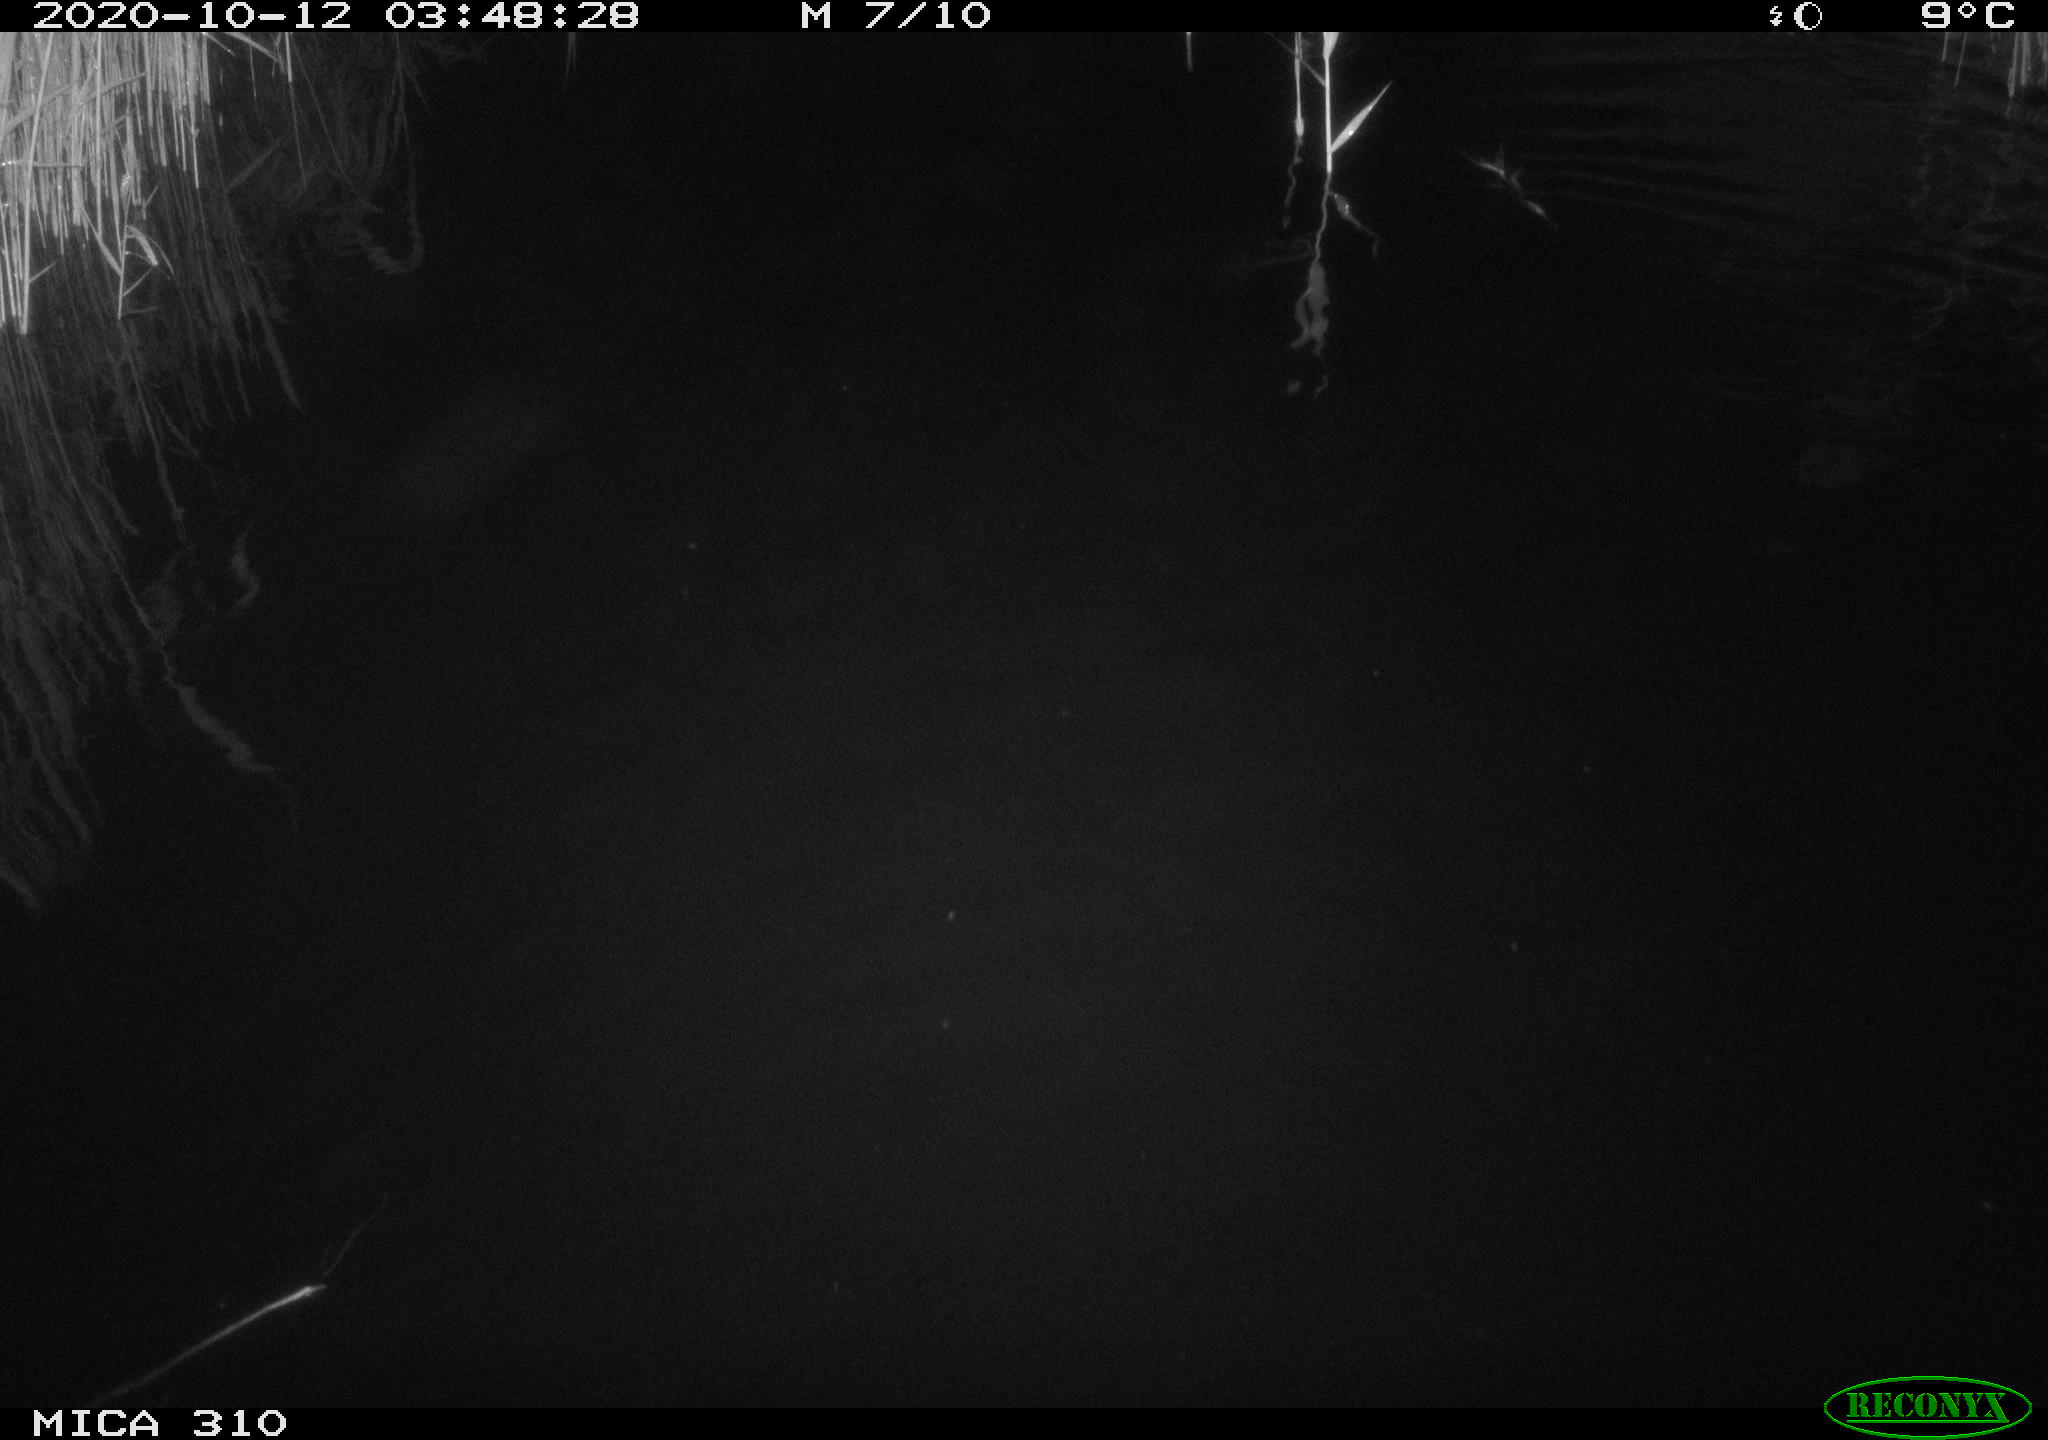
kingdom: Animalia
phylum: Chordata
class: Mammalia
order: Rodentia
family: Cricetidae
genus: Ondatra
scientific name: Ondatra zibethicus
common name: Muskrat
